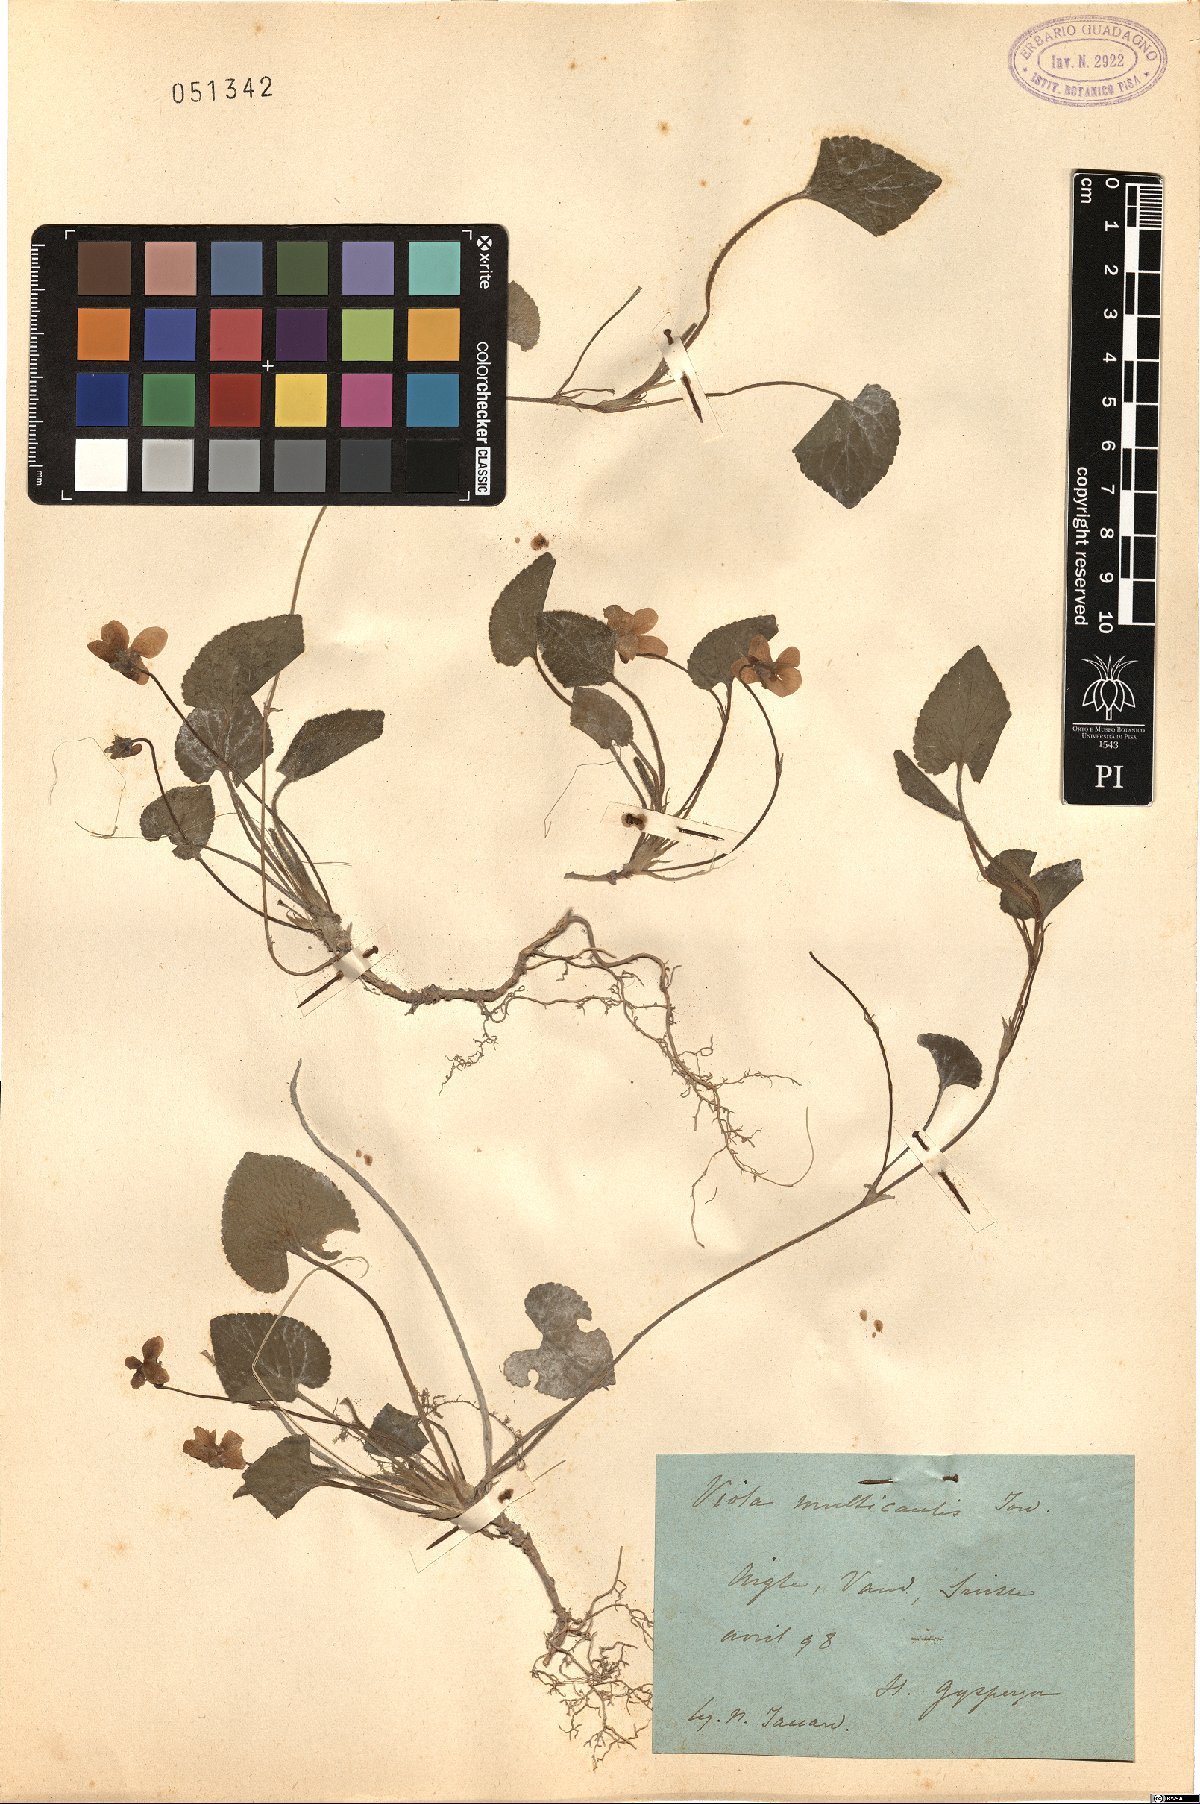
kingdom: Plantae
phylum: Tracheophyta
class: Magnoliopsida
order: Malpighiales
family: Violaceae
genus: Viola
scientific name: Viola basilensis
